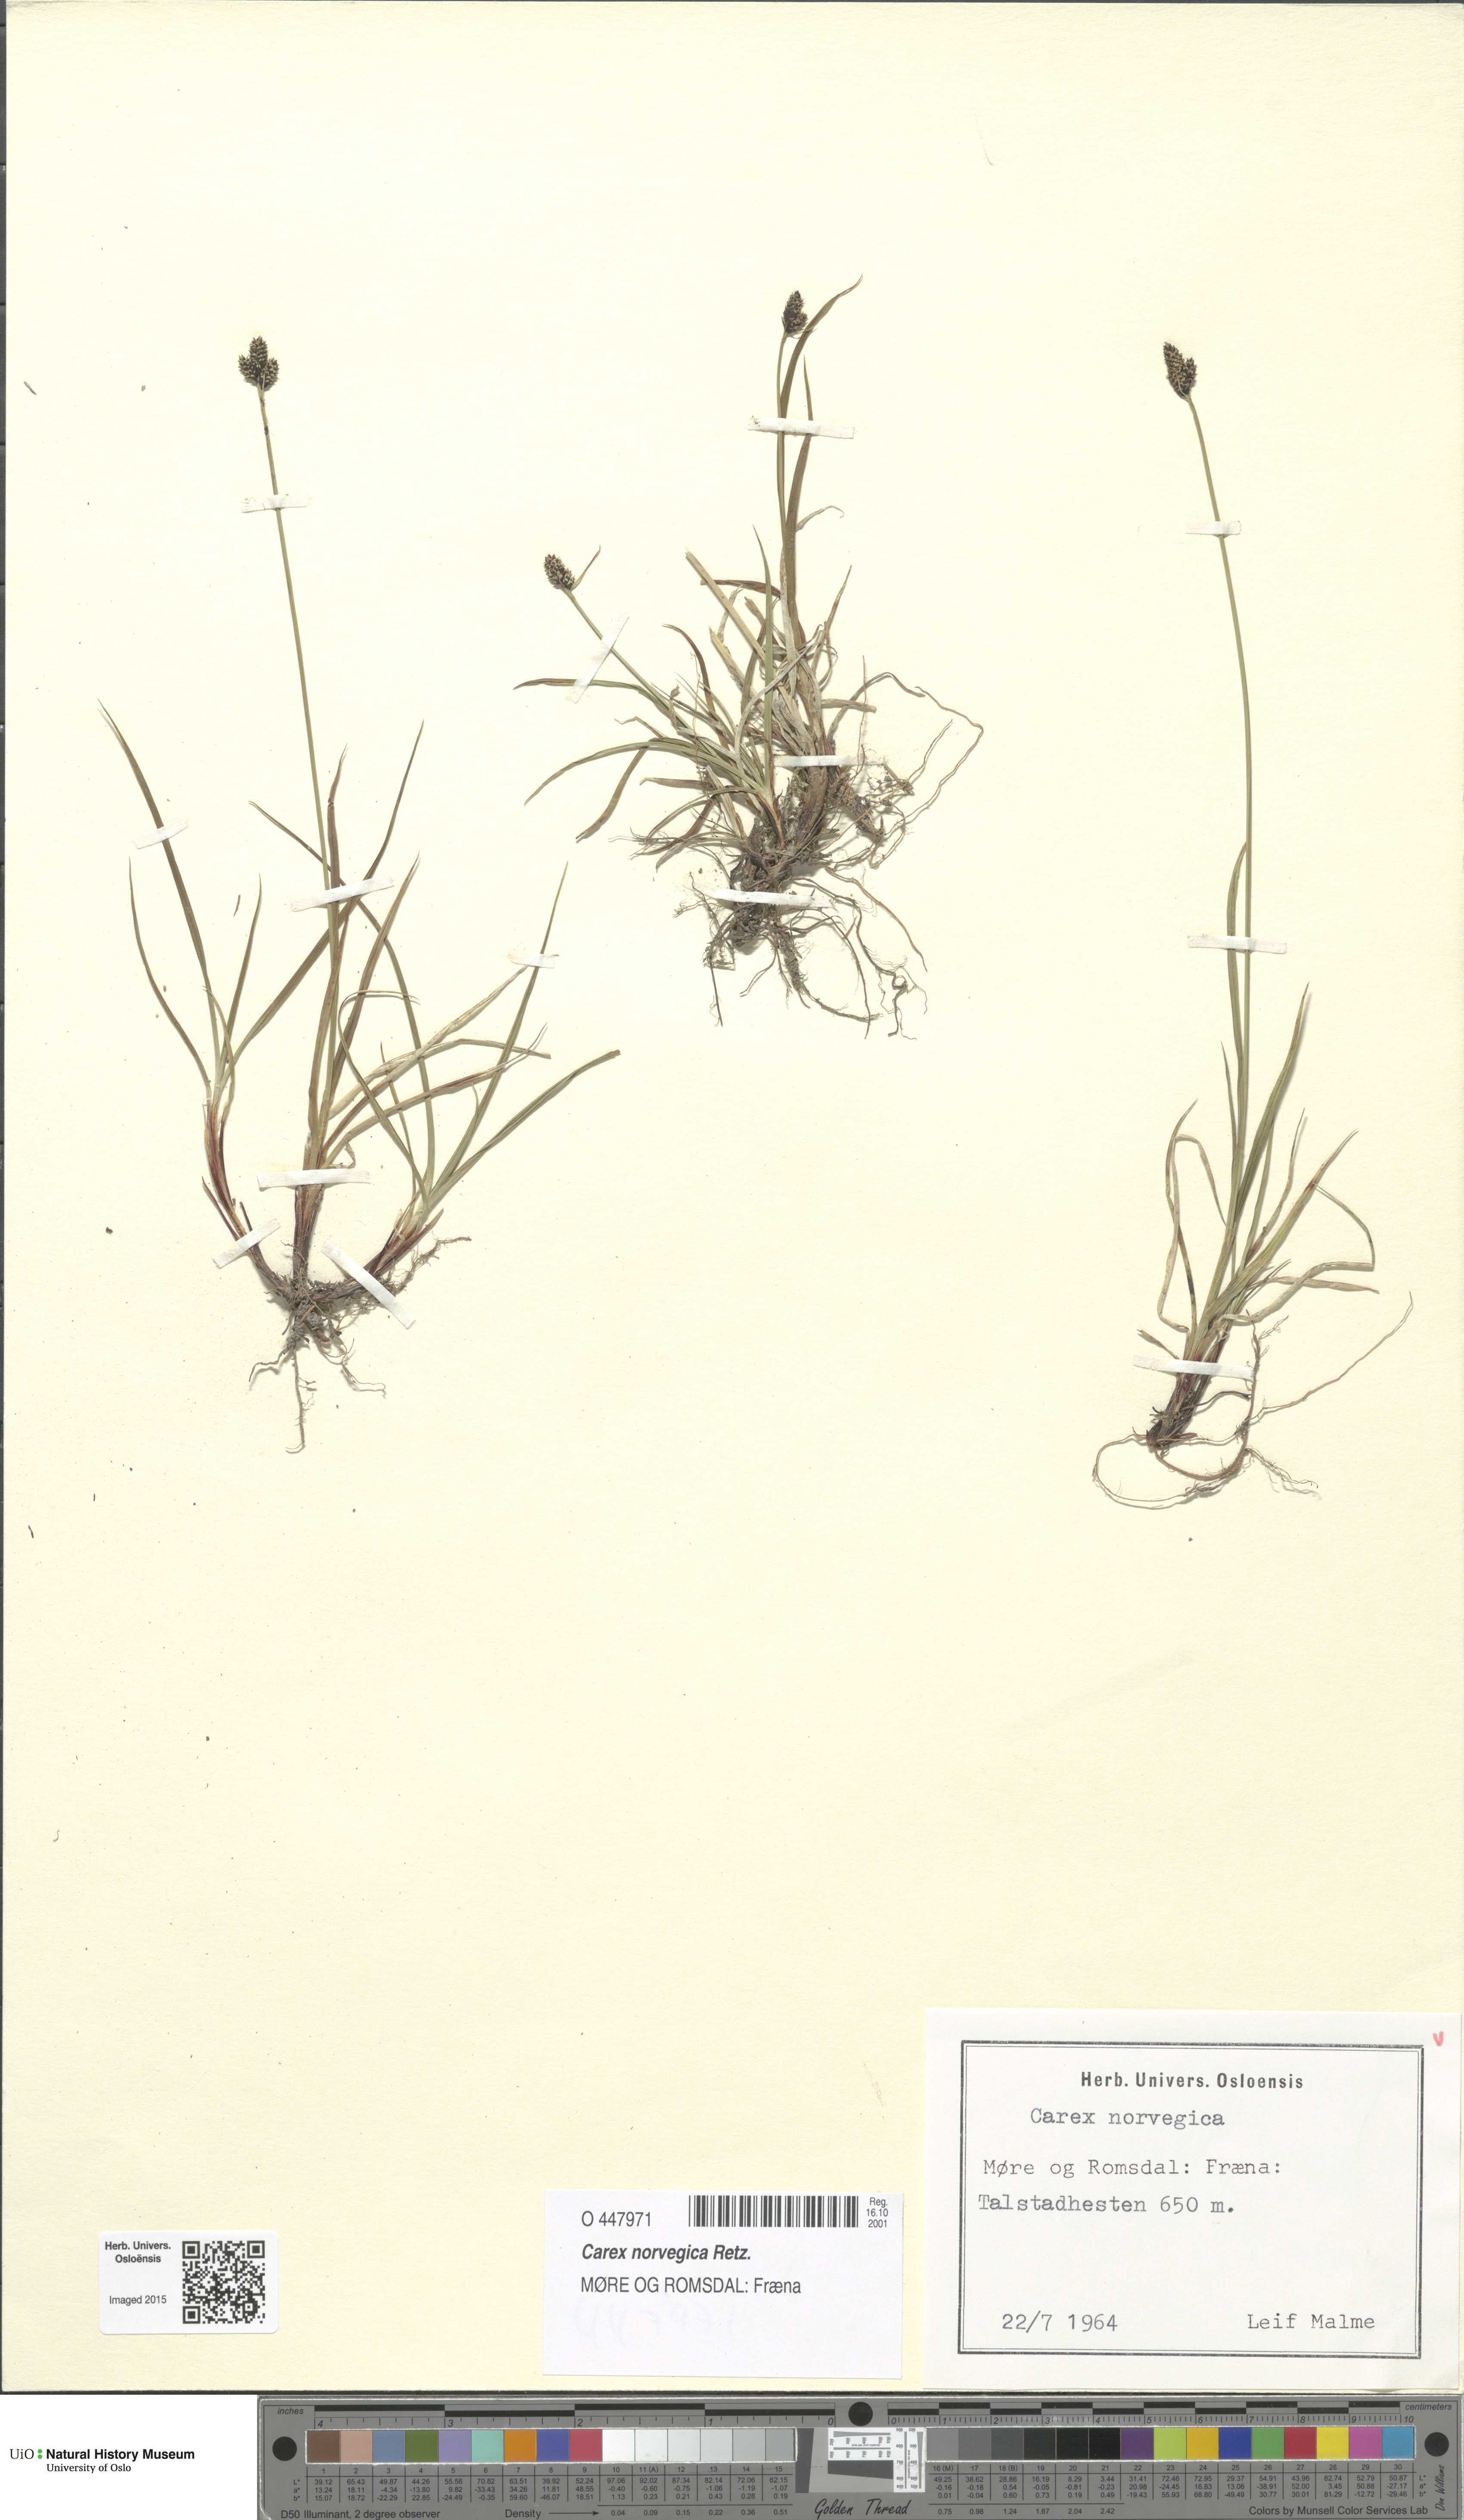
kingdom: Plantae
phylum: Tracheophyta
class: Liliopsida
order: Poales
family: Cyperaceae
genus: Carex
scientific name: Carex norvegica
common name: Close-headed alpine-sedge
